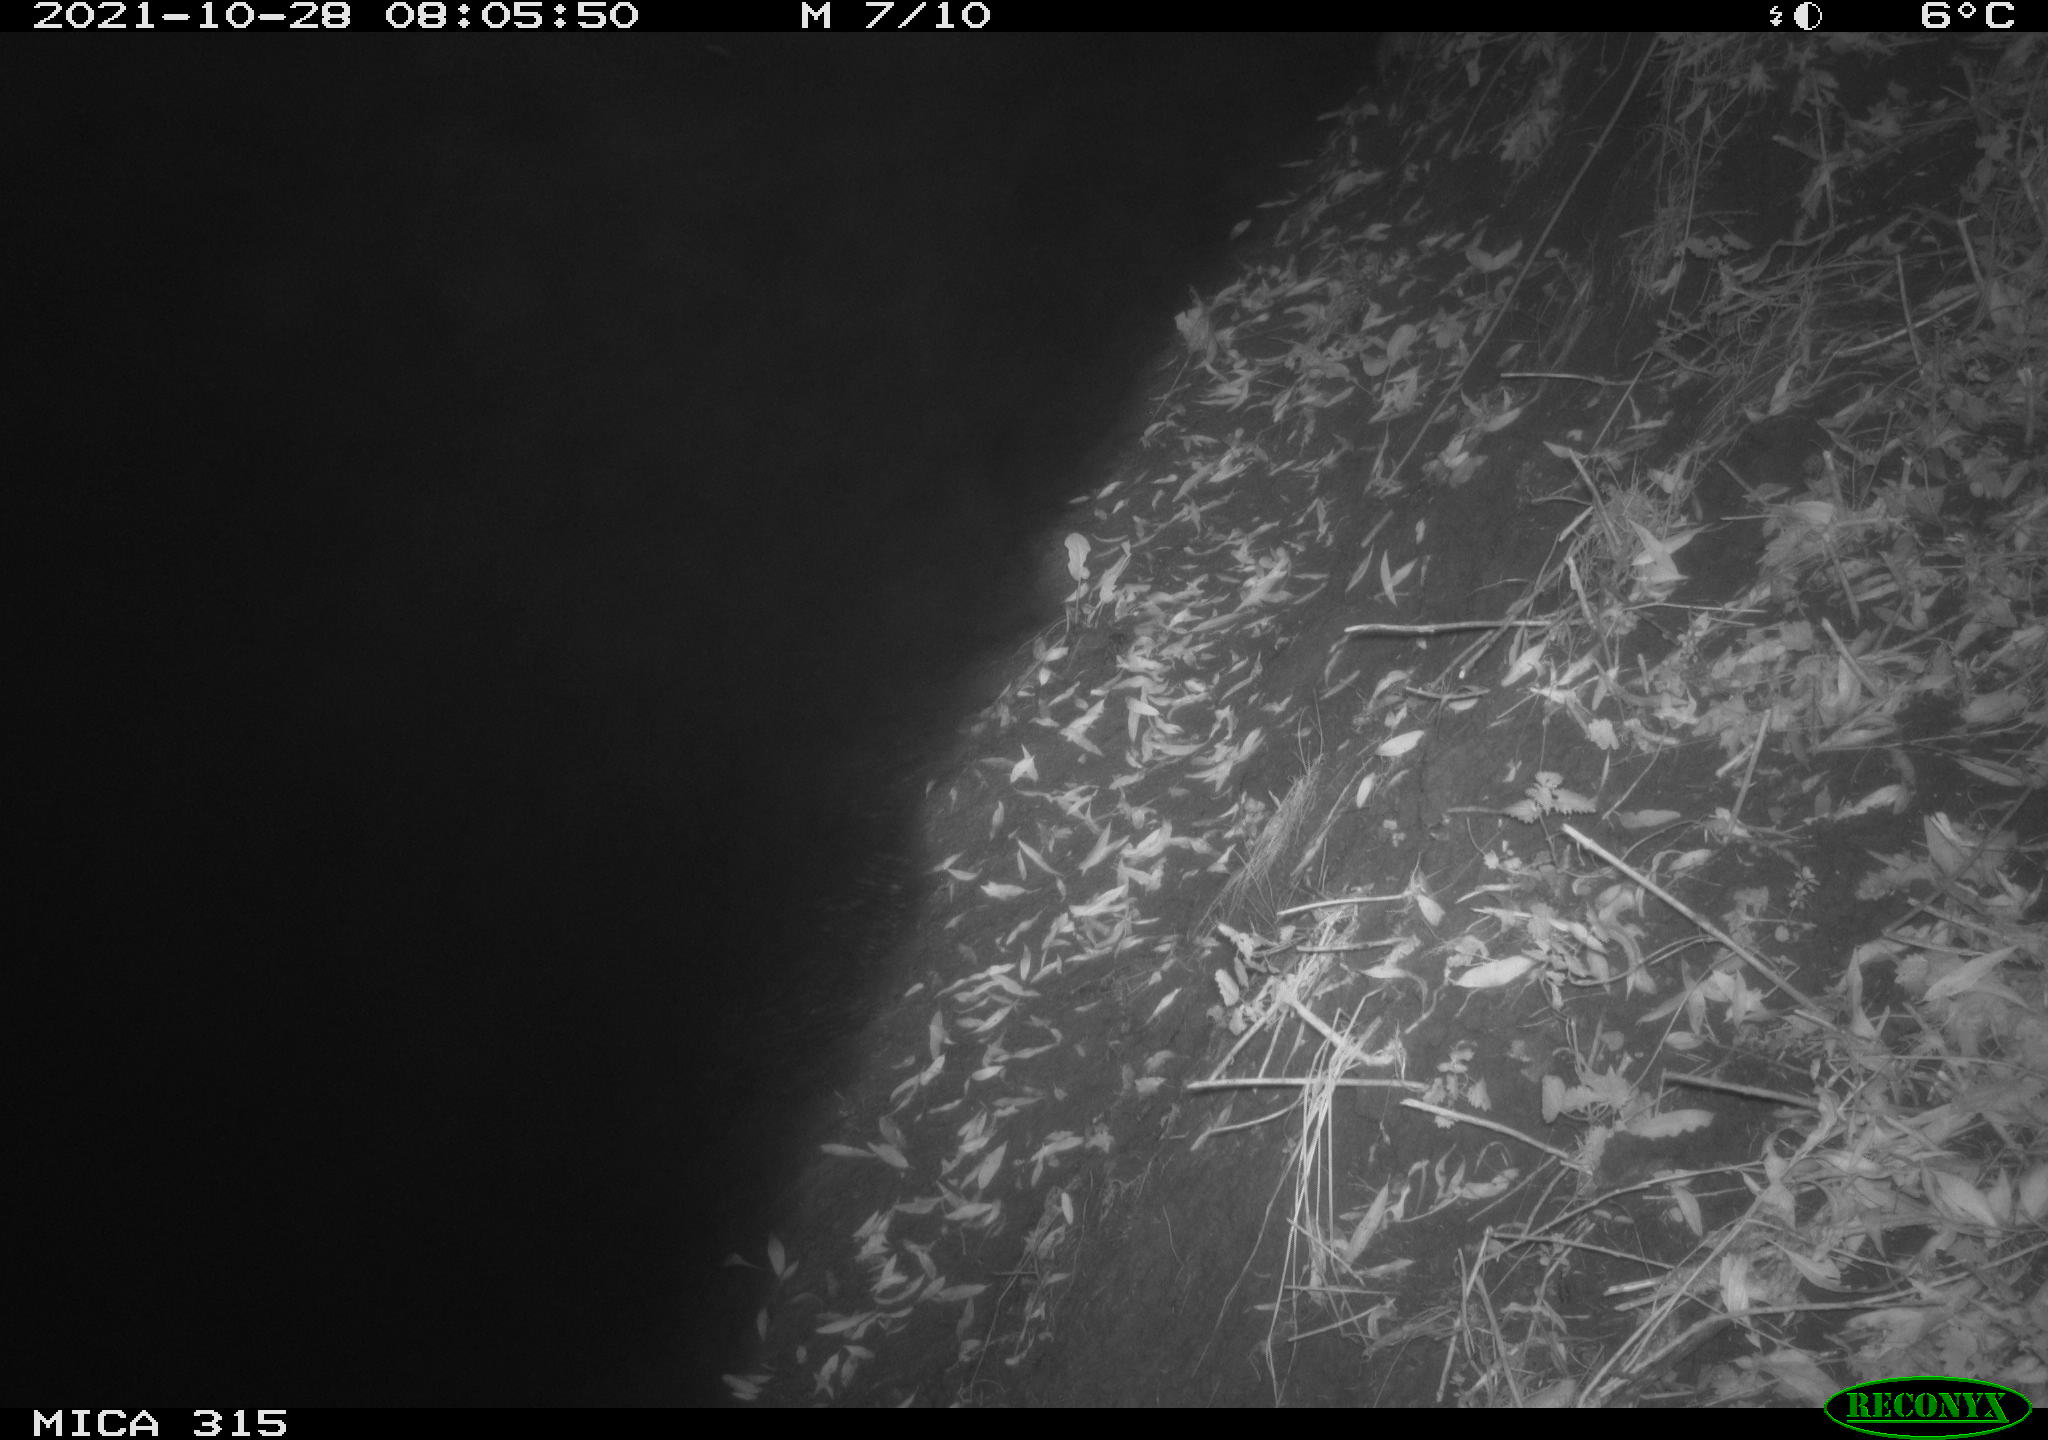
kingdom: Animalia
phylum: Chordata
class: Mammalia
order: Rodentia
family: Muridae
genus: Rattus
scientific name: Rattus norvegicus
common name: Brown rat
